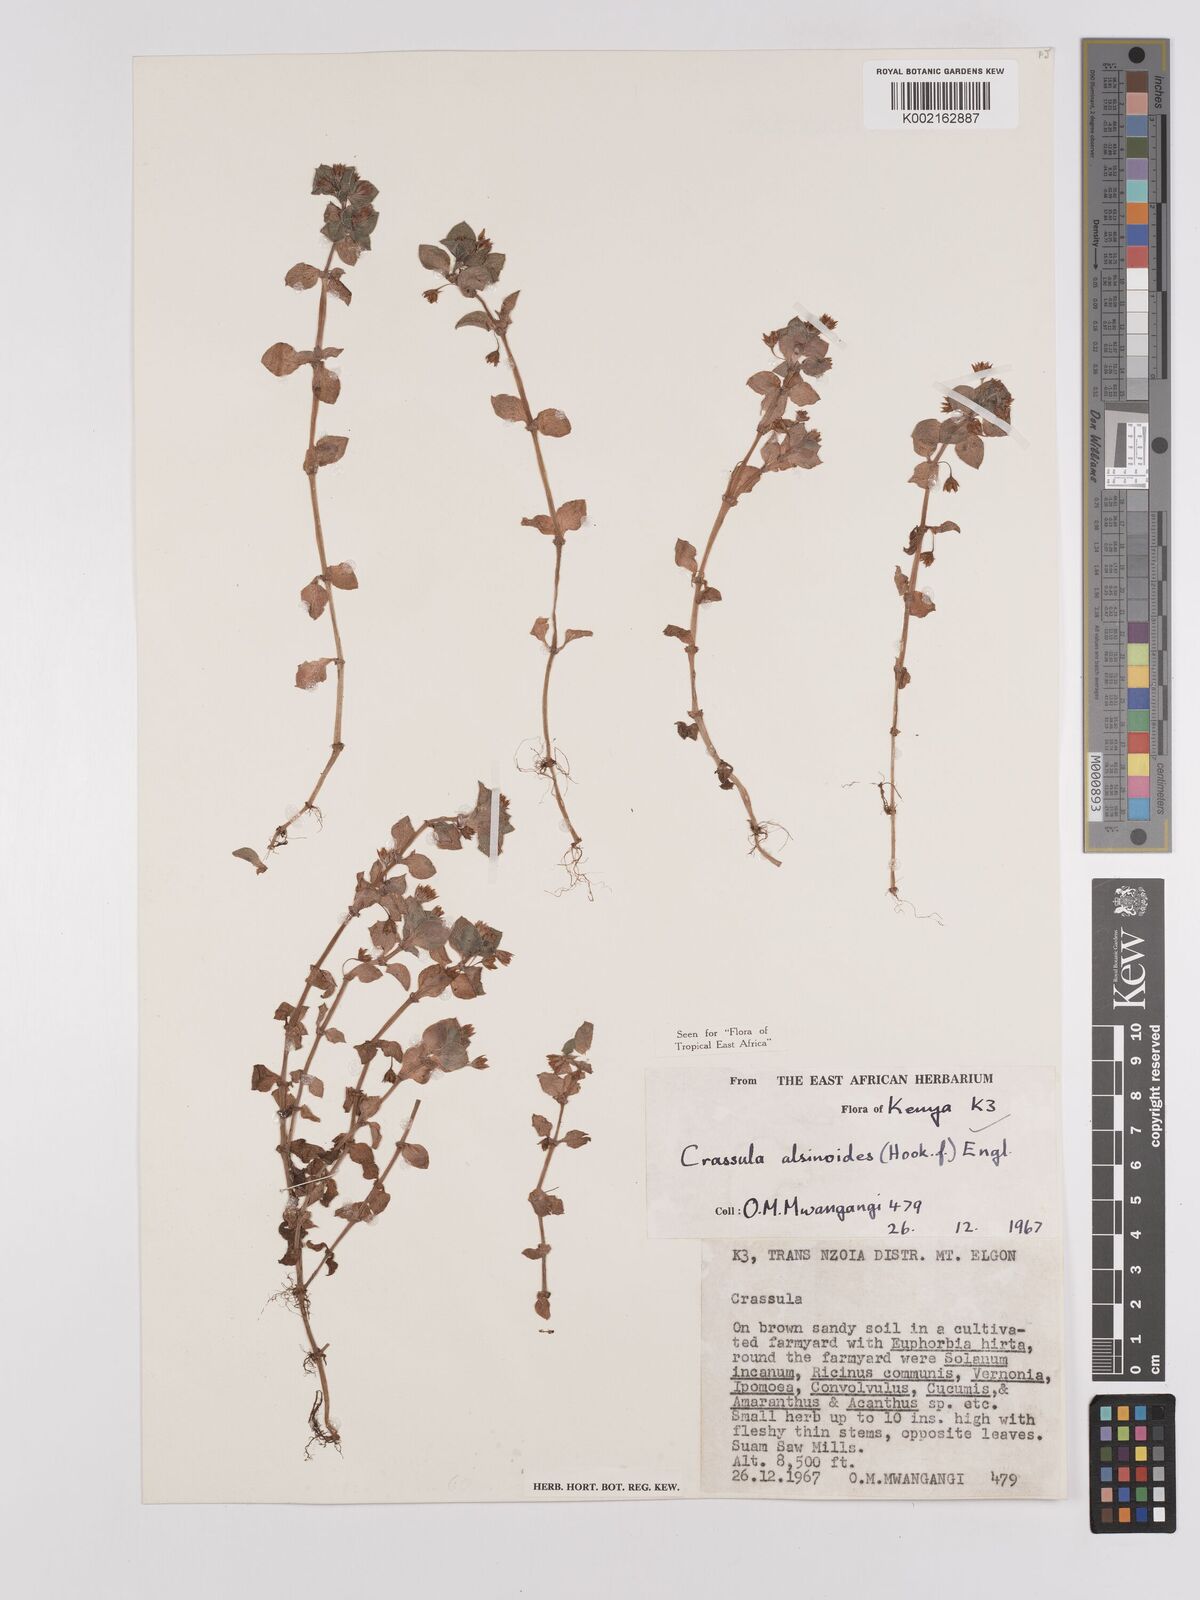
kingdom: Plantae
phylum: Tracheophyta
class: Magnoliopsida
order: Saxifragales
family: Crassulaceae
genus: Crassula
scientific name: Crassula alsinoides
